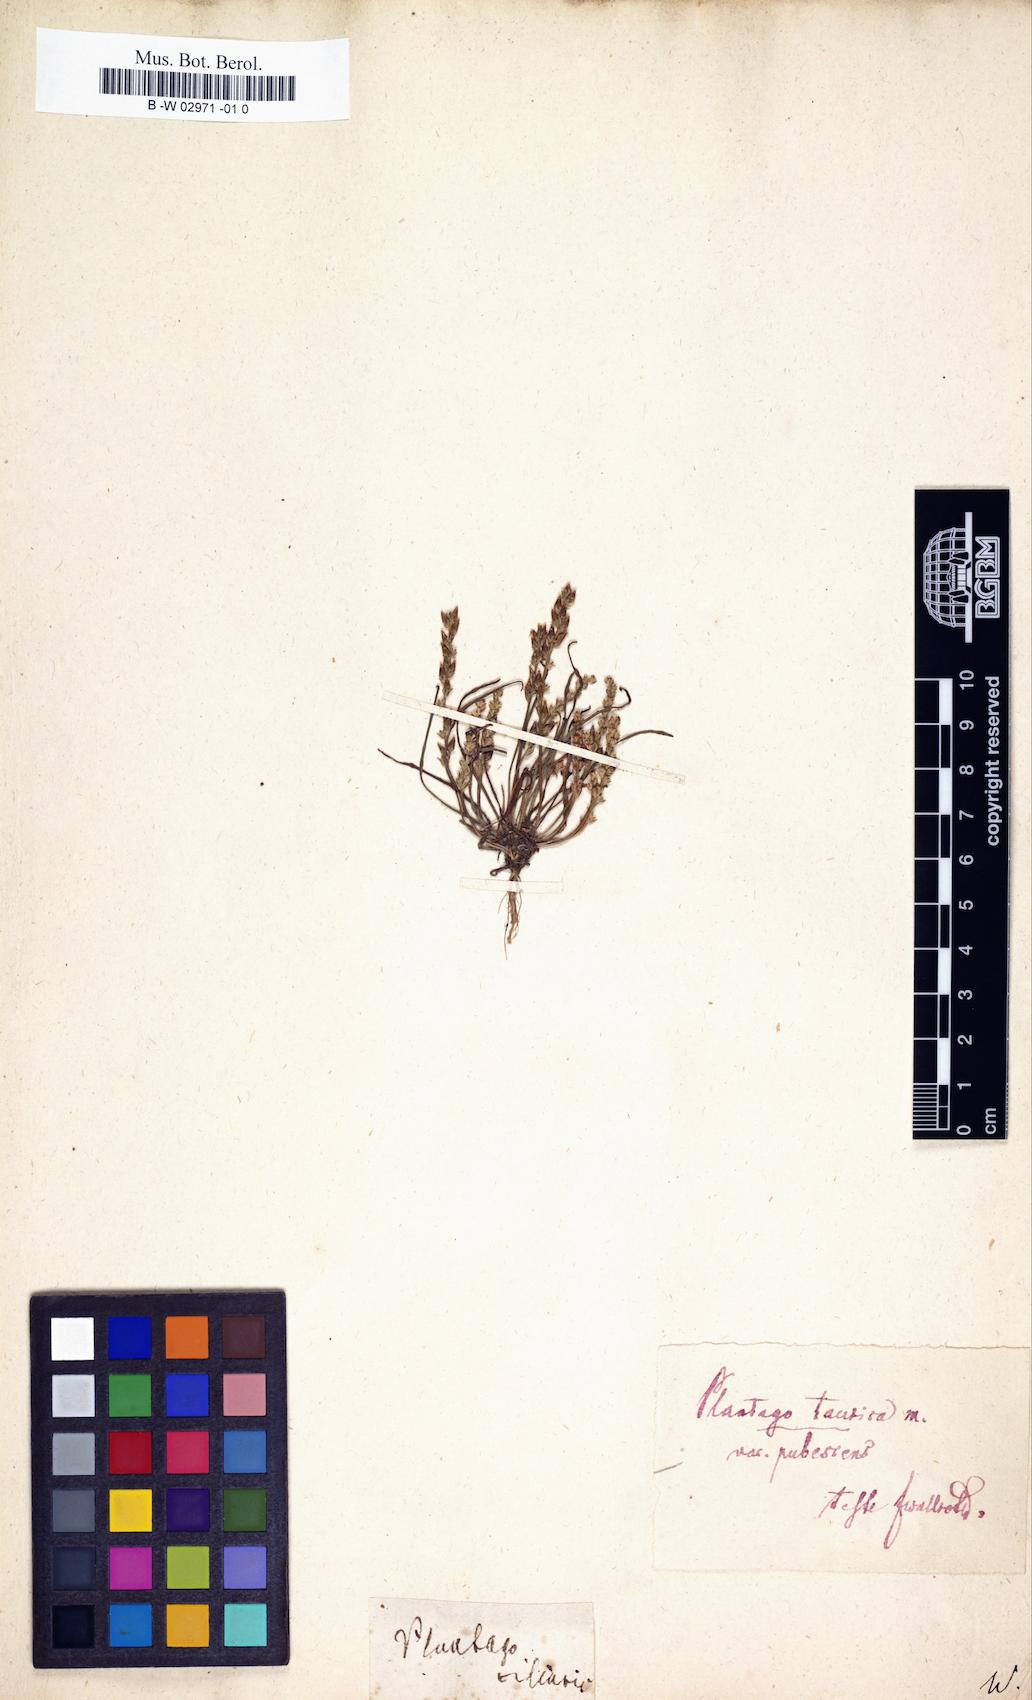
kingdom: Plantae
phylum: Tracheophyta
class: Magnoliopsida
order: Lamiales
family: Plantaginaceae
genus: Plantago
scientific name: Plantago
